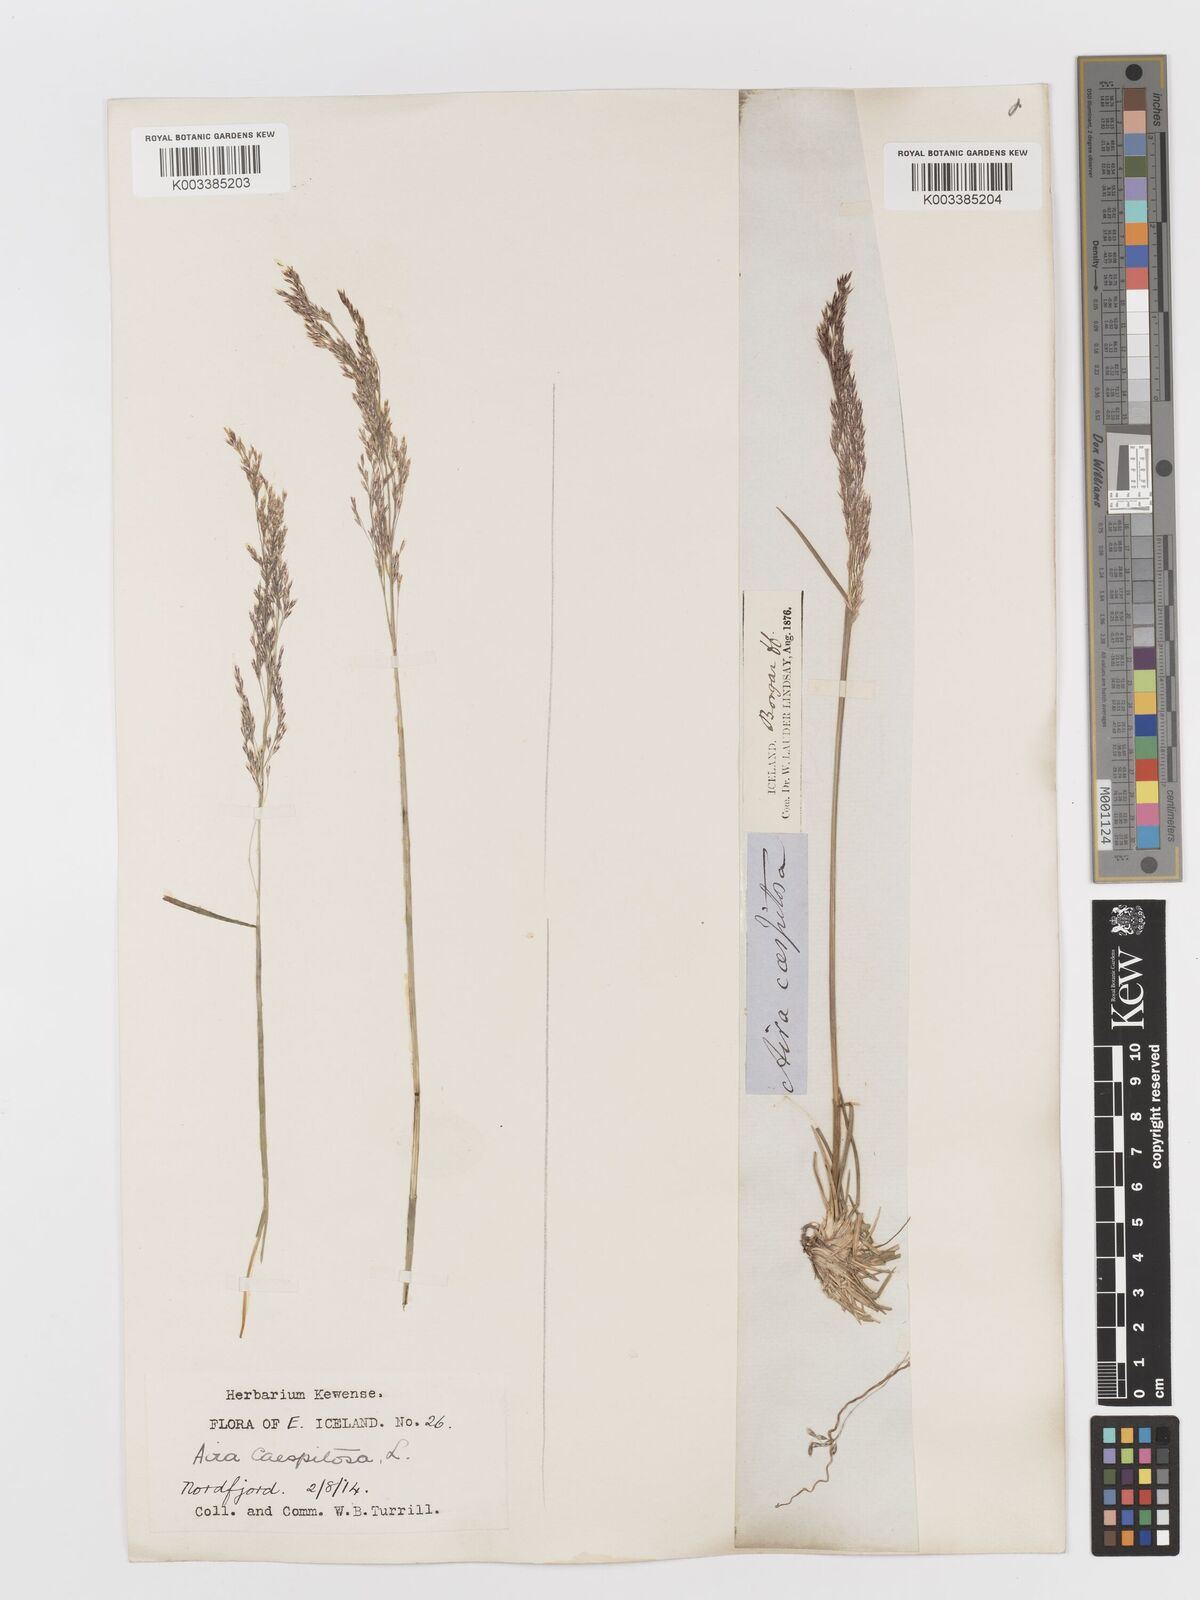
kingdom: Plantae
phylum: Tracheophyta
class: Liliopsida
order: Poales
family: Poaceae
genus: Deschampsia
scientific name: Deschampsia cespitosa
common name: Tufted hair-grass
